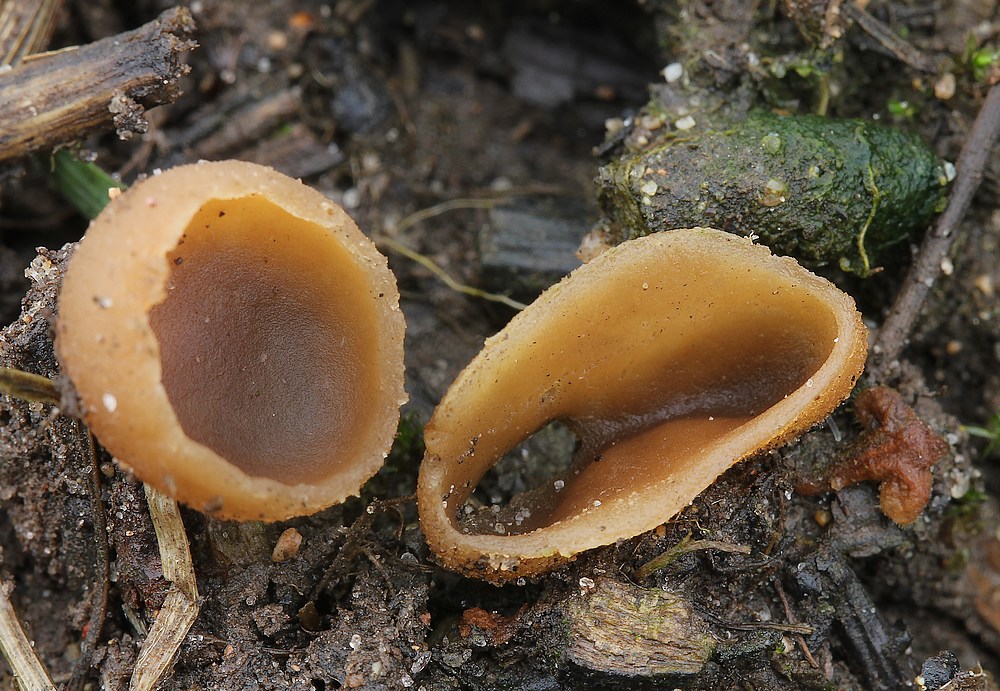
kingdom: Fungi
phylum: Ascomycota
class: Pezizomycetes
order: Pezizales
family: Pezizaceae
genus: Peziza
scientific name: Peziza vesiculosa
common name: blære-bægersvamp
